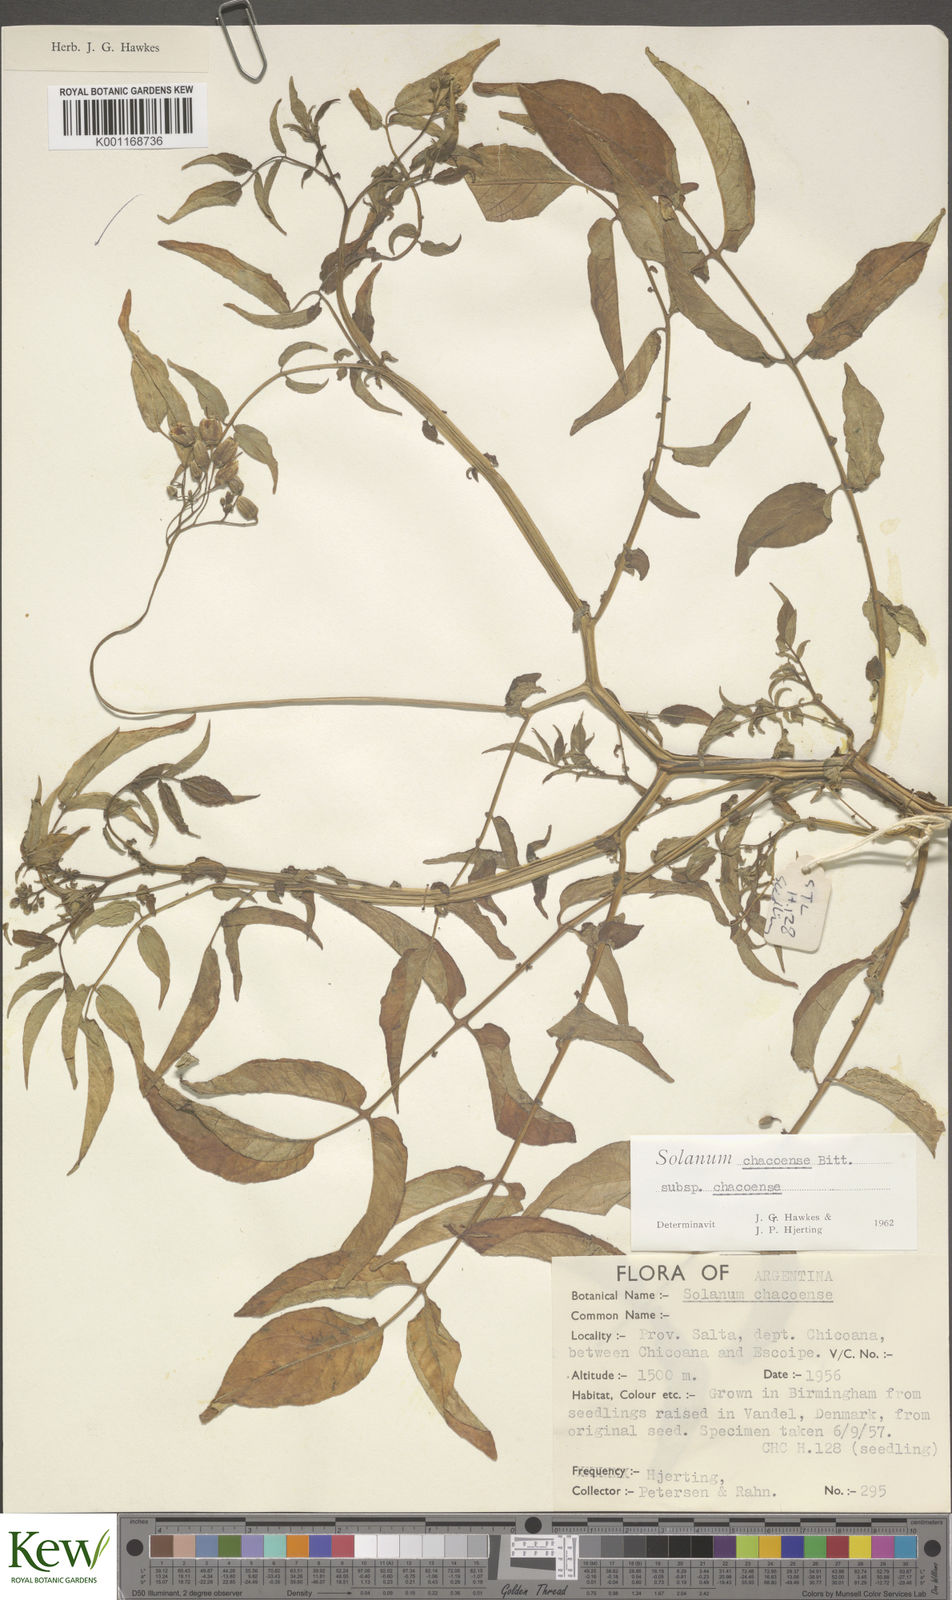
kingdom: Plantae
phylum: Tracheophyta
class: Magnoliopsida
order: Solanales
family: Solanaceae
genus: Solanum
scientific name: Solanum chacoense
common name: Chaco potato
